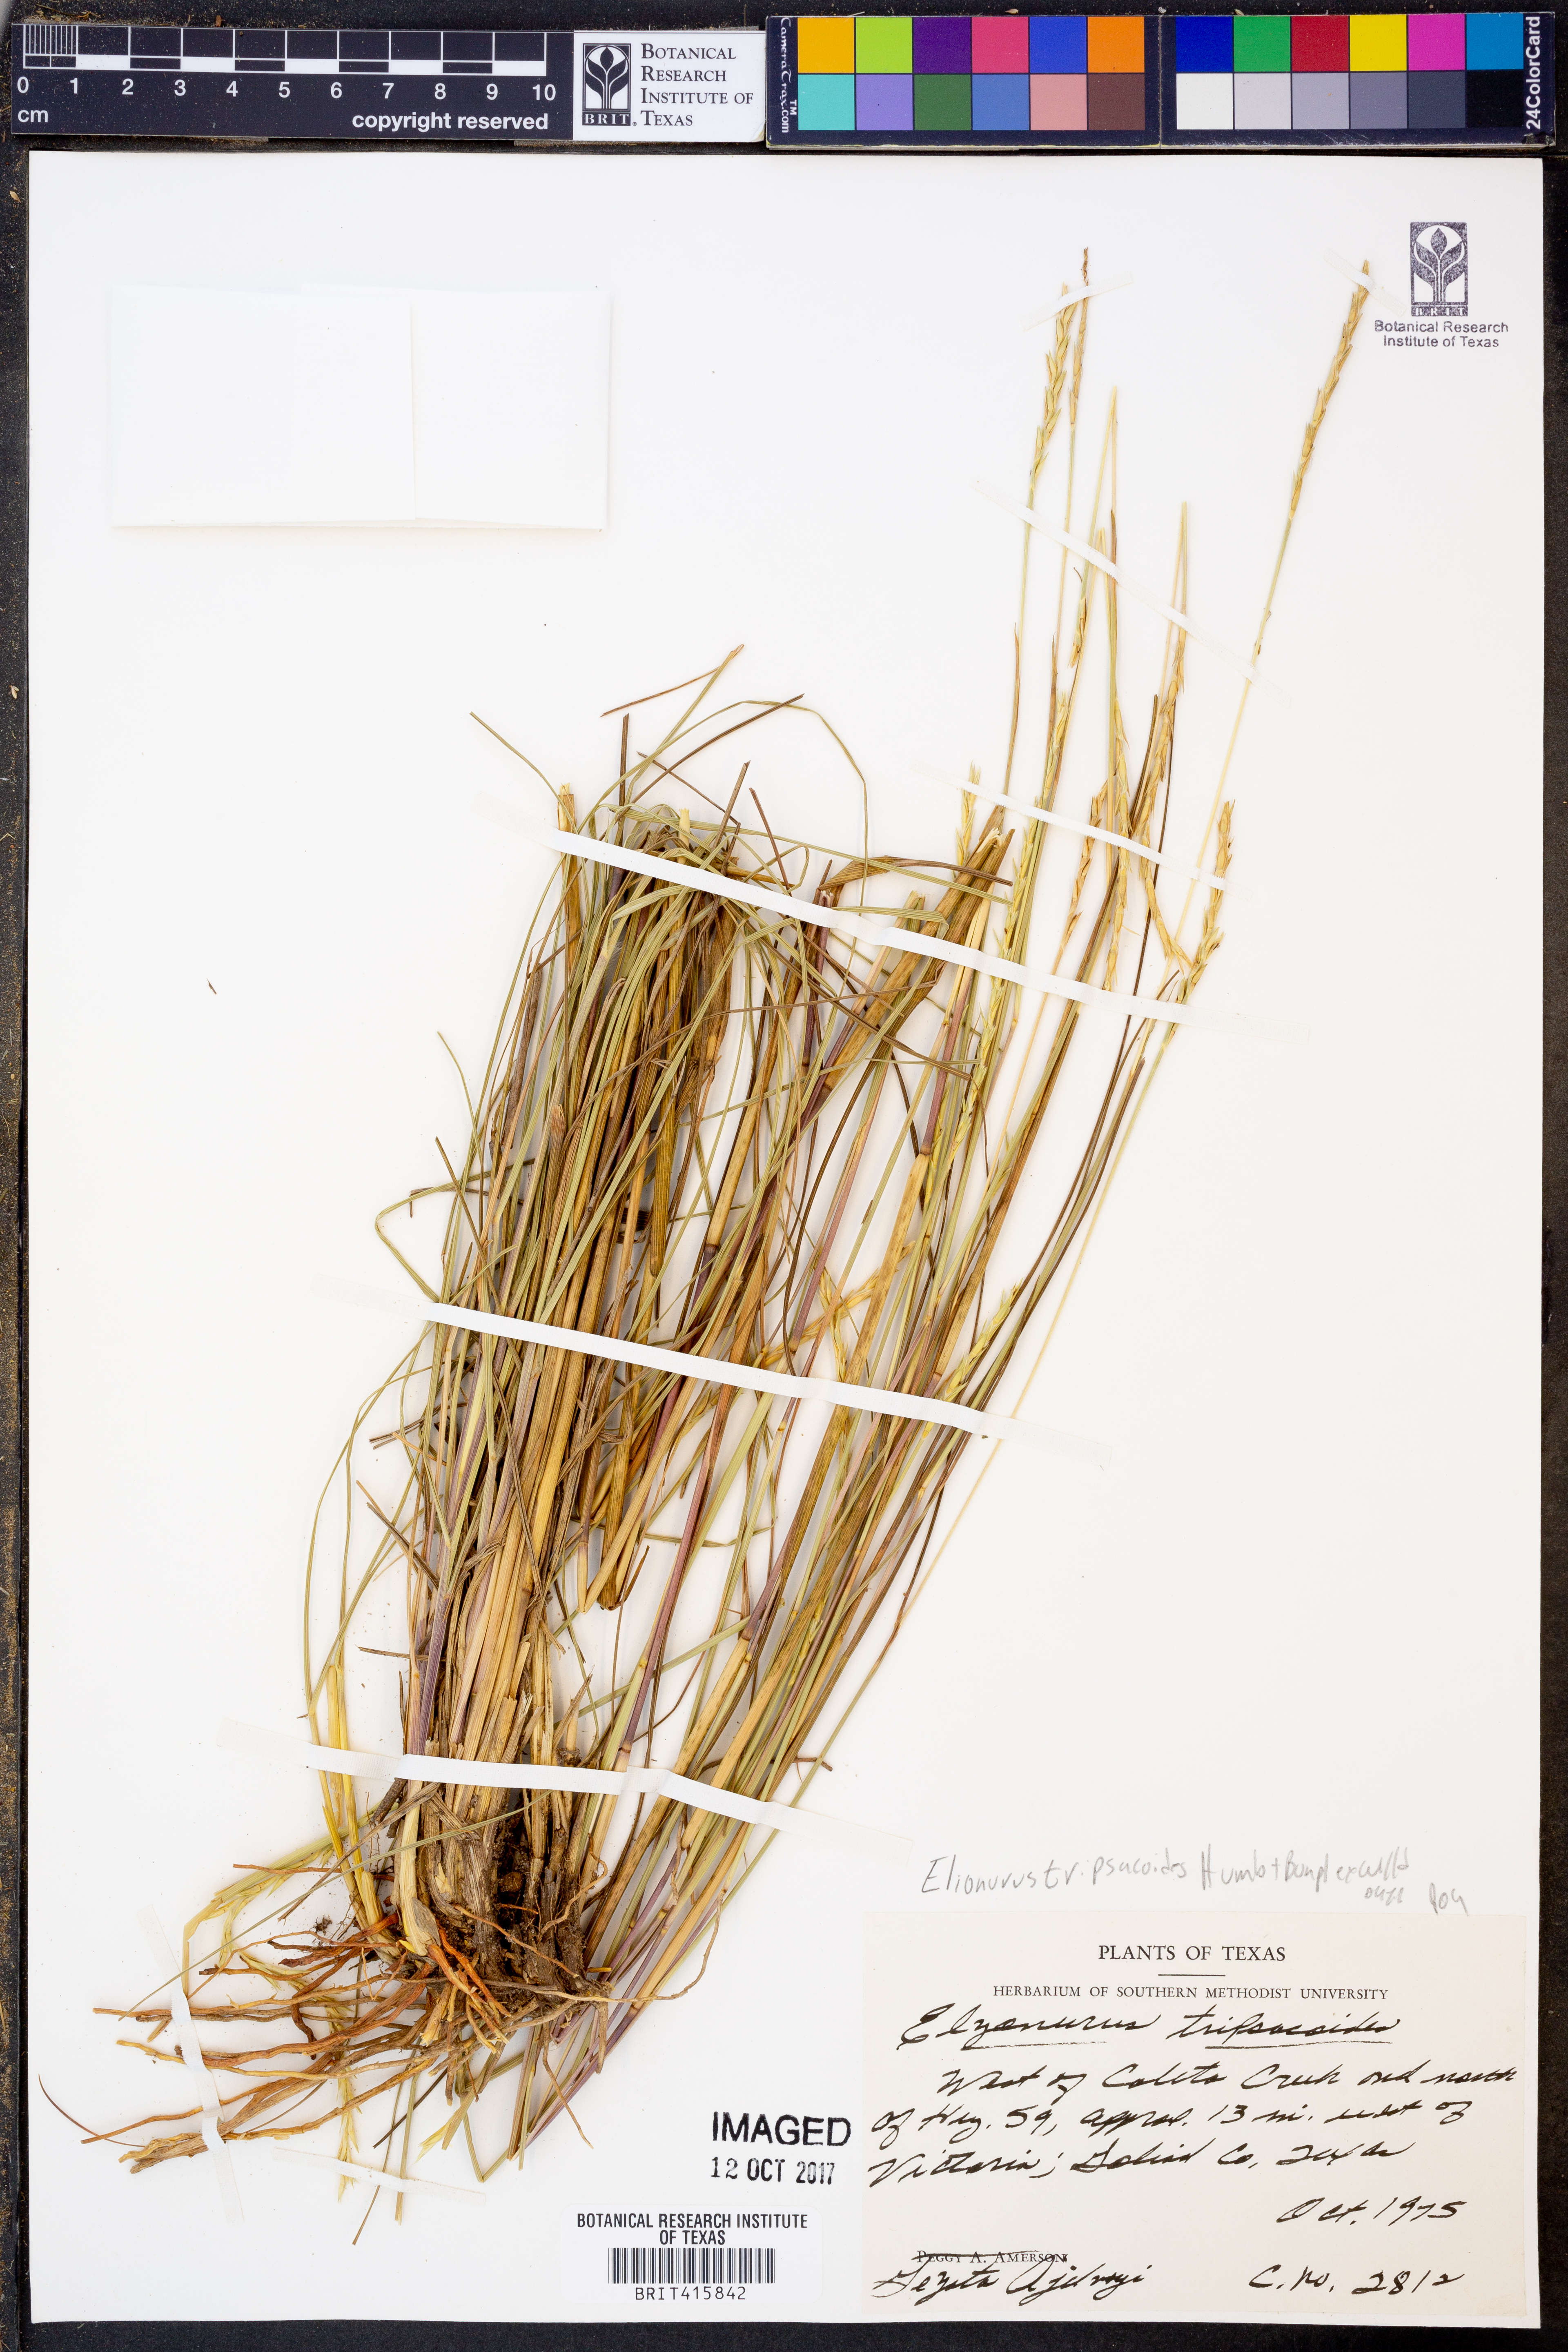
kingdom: Plantae
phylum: Tracheophyta
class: Liliopsida
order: Poales
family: Poaceae
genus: Elionurus
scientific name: Elionurus tripsacoides
